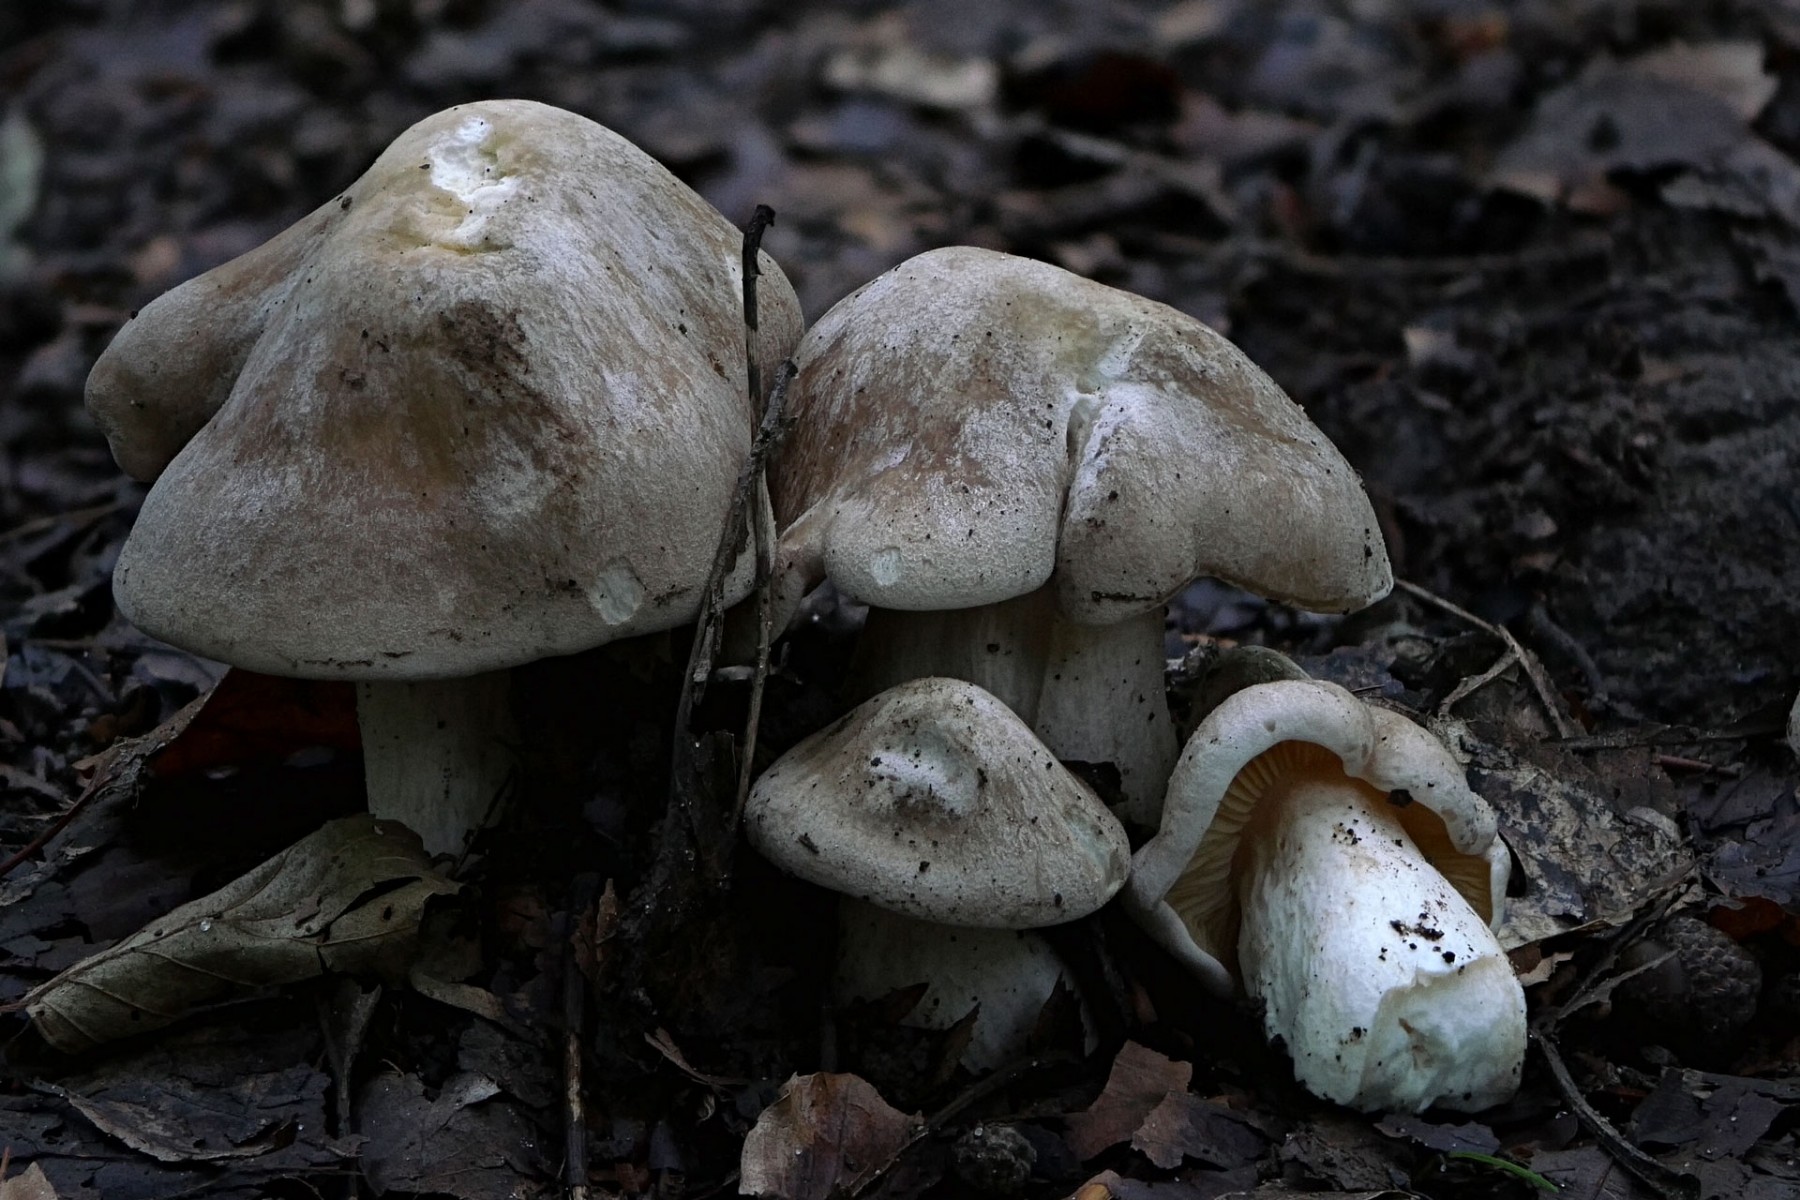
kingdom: Fungi
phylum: Basidiomycota
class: Agaricomycetes
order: Agaricales
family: Entolomataceae
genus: Entoloma
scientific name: Entoloma sinuatum
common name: giftig rødblad
